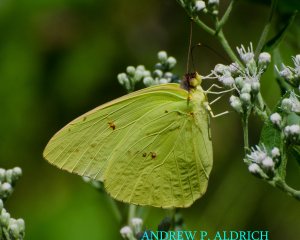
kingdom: Animalia
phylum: Arthropoda
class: Insecta
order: Lepidoptera
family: Pieridae
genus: Phoebis
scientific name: Phoebis sennae
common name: Cloudless Sulphur
